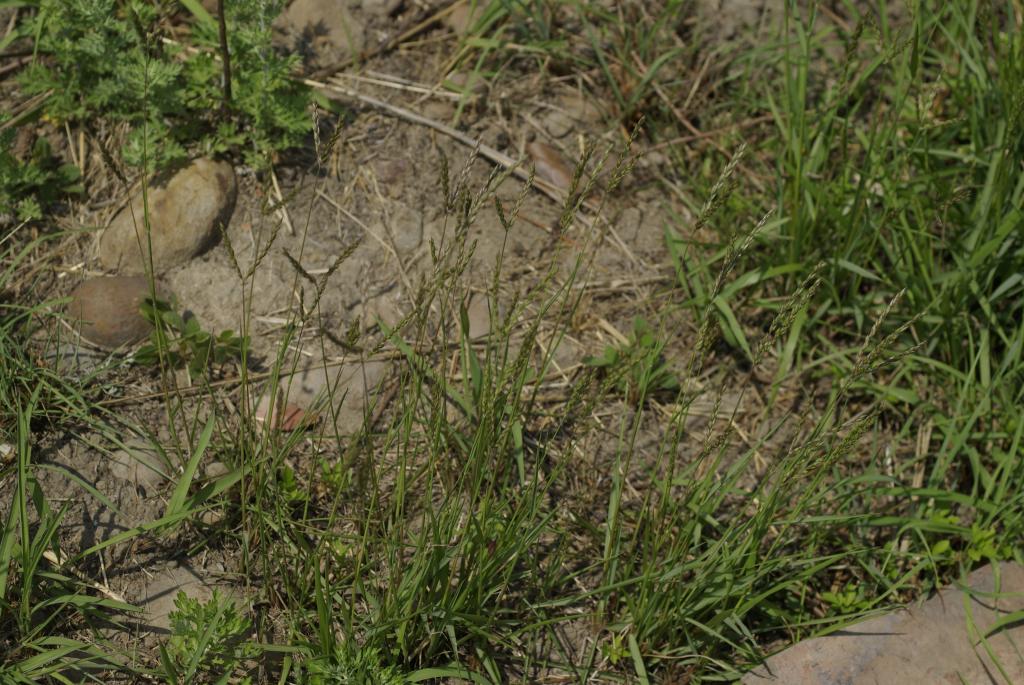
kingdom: Plantae
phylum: Tracheophyta
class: Liliopsida
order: Poales
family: Poaceae
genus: Alloteropsis
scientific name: Alloteropsis semialata
